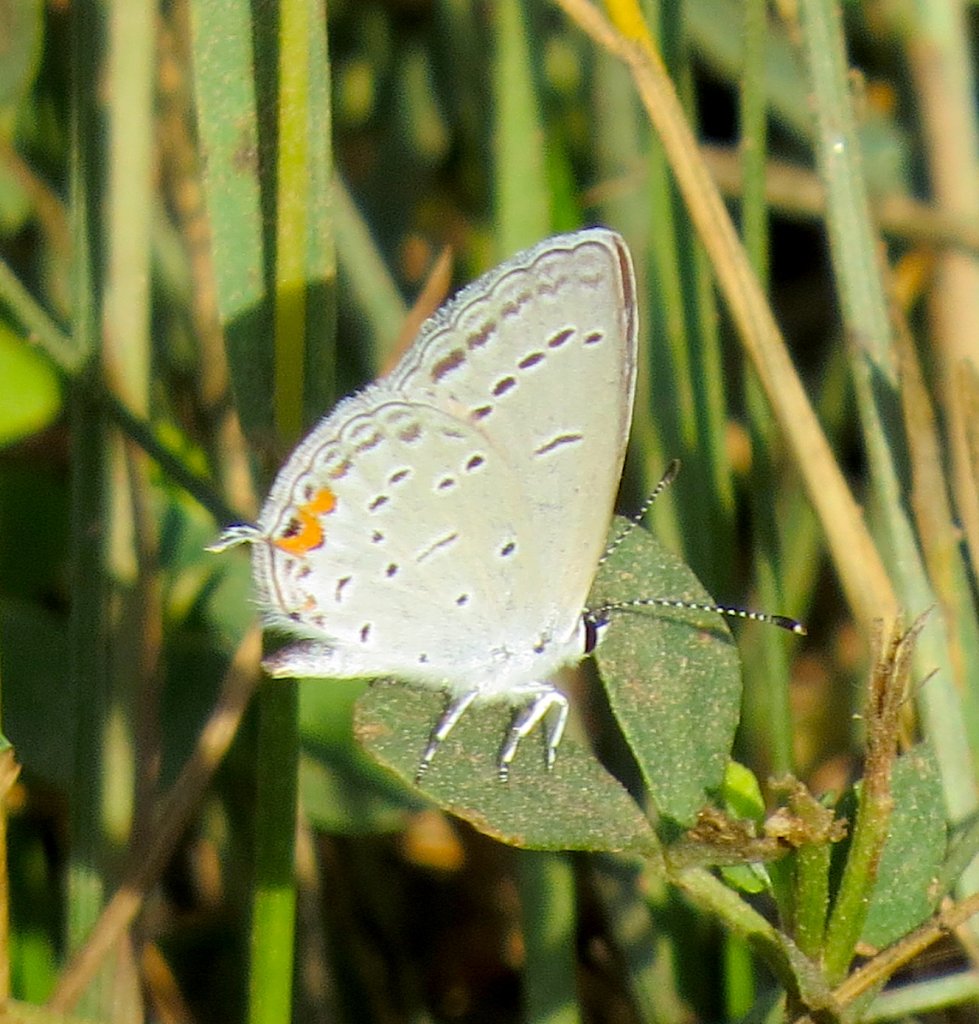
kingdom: Animalia
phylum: Arthropoda
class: Insecta
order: Lepidoptera
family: Lycaenidae
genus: Elkalyce
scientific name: Elkalyce comyntas
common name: Eastern Tailed-Blue
